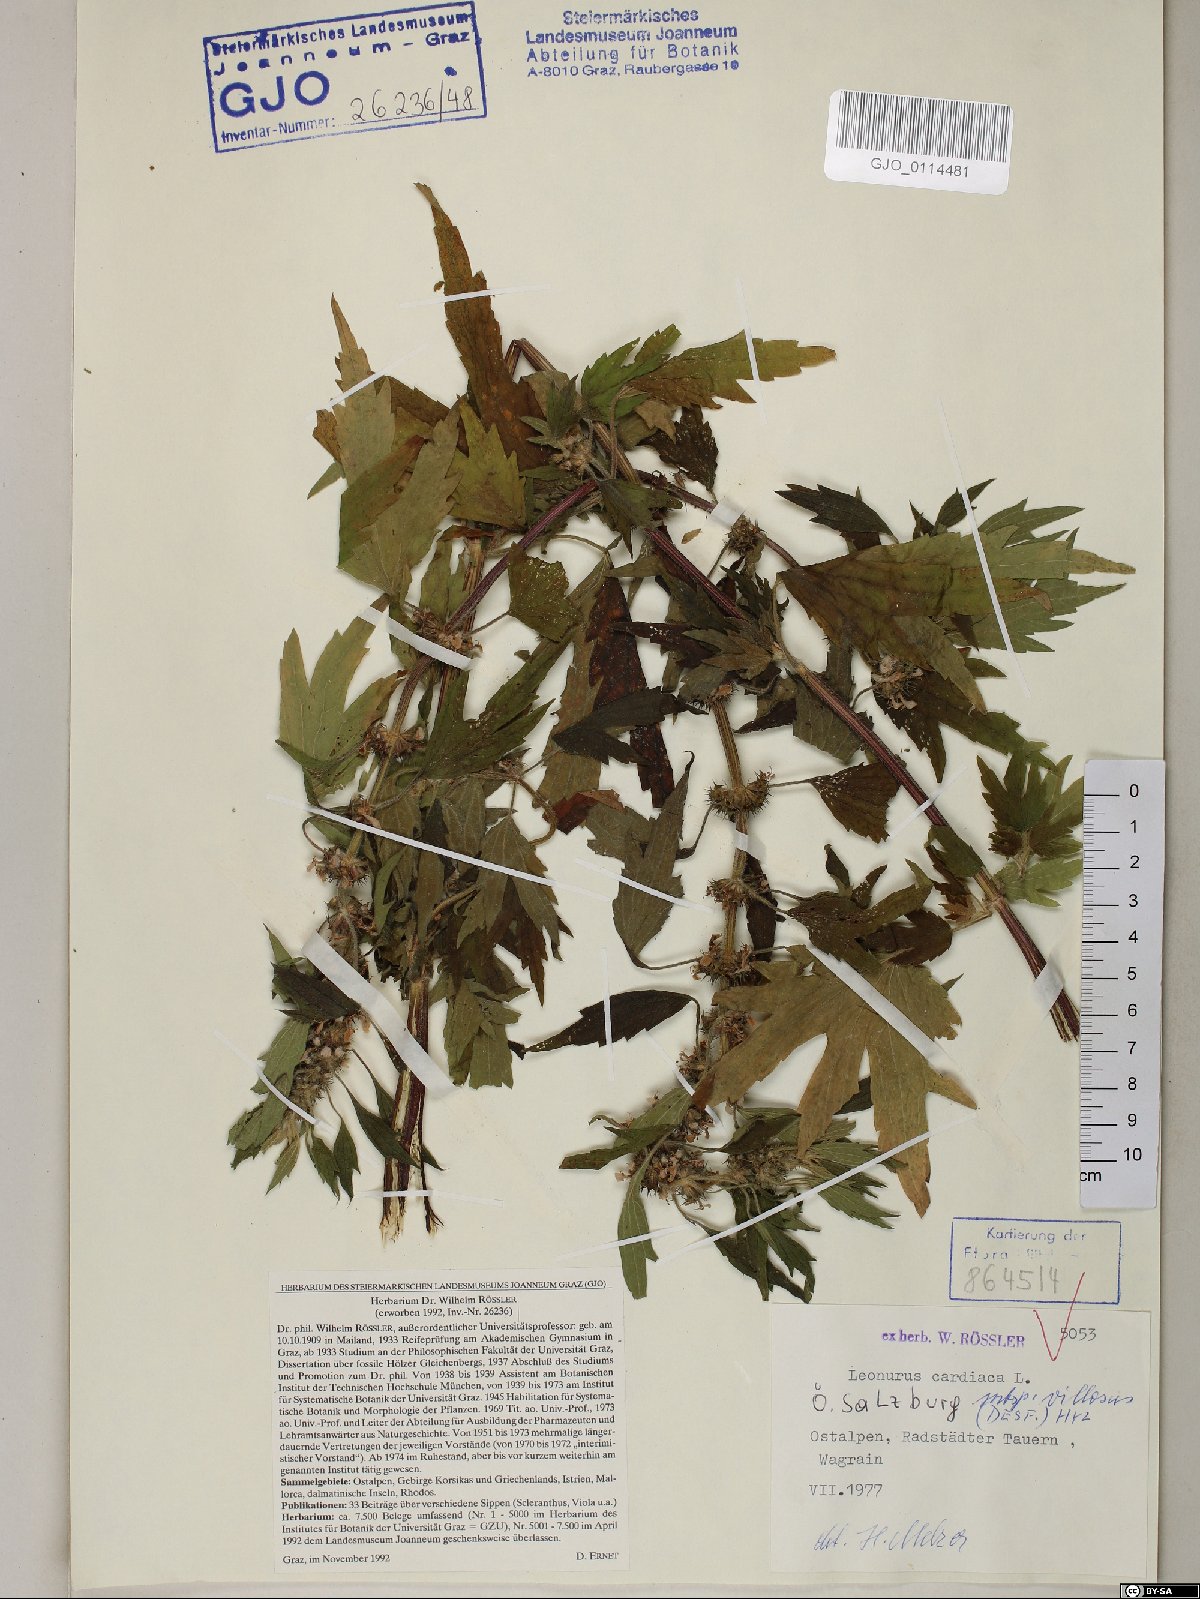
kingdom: Plantae
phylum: Tracheophyta
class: Magnoliopsida
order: Lamiales
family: Lamiaceae
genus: Leonurus
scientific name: Leonurus quinquelobatus
